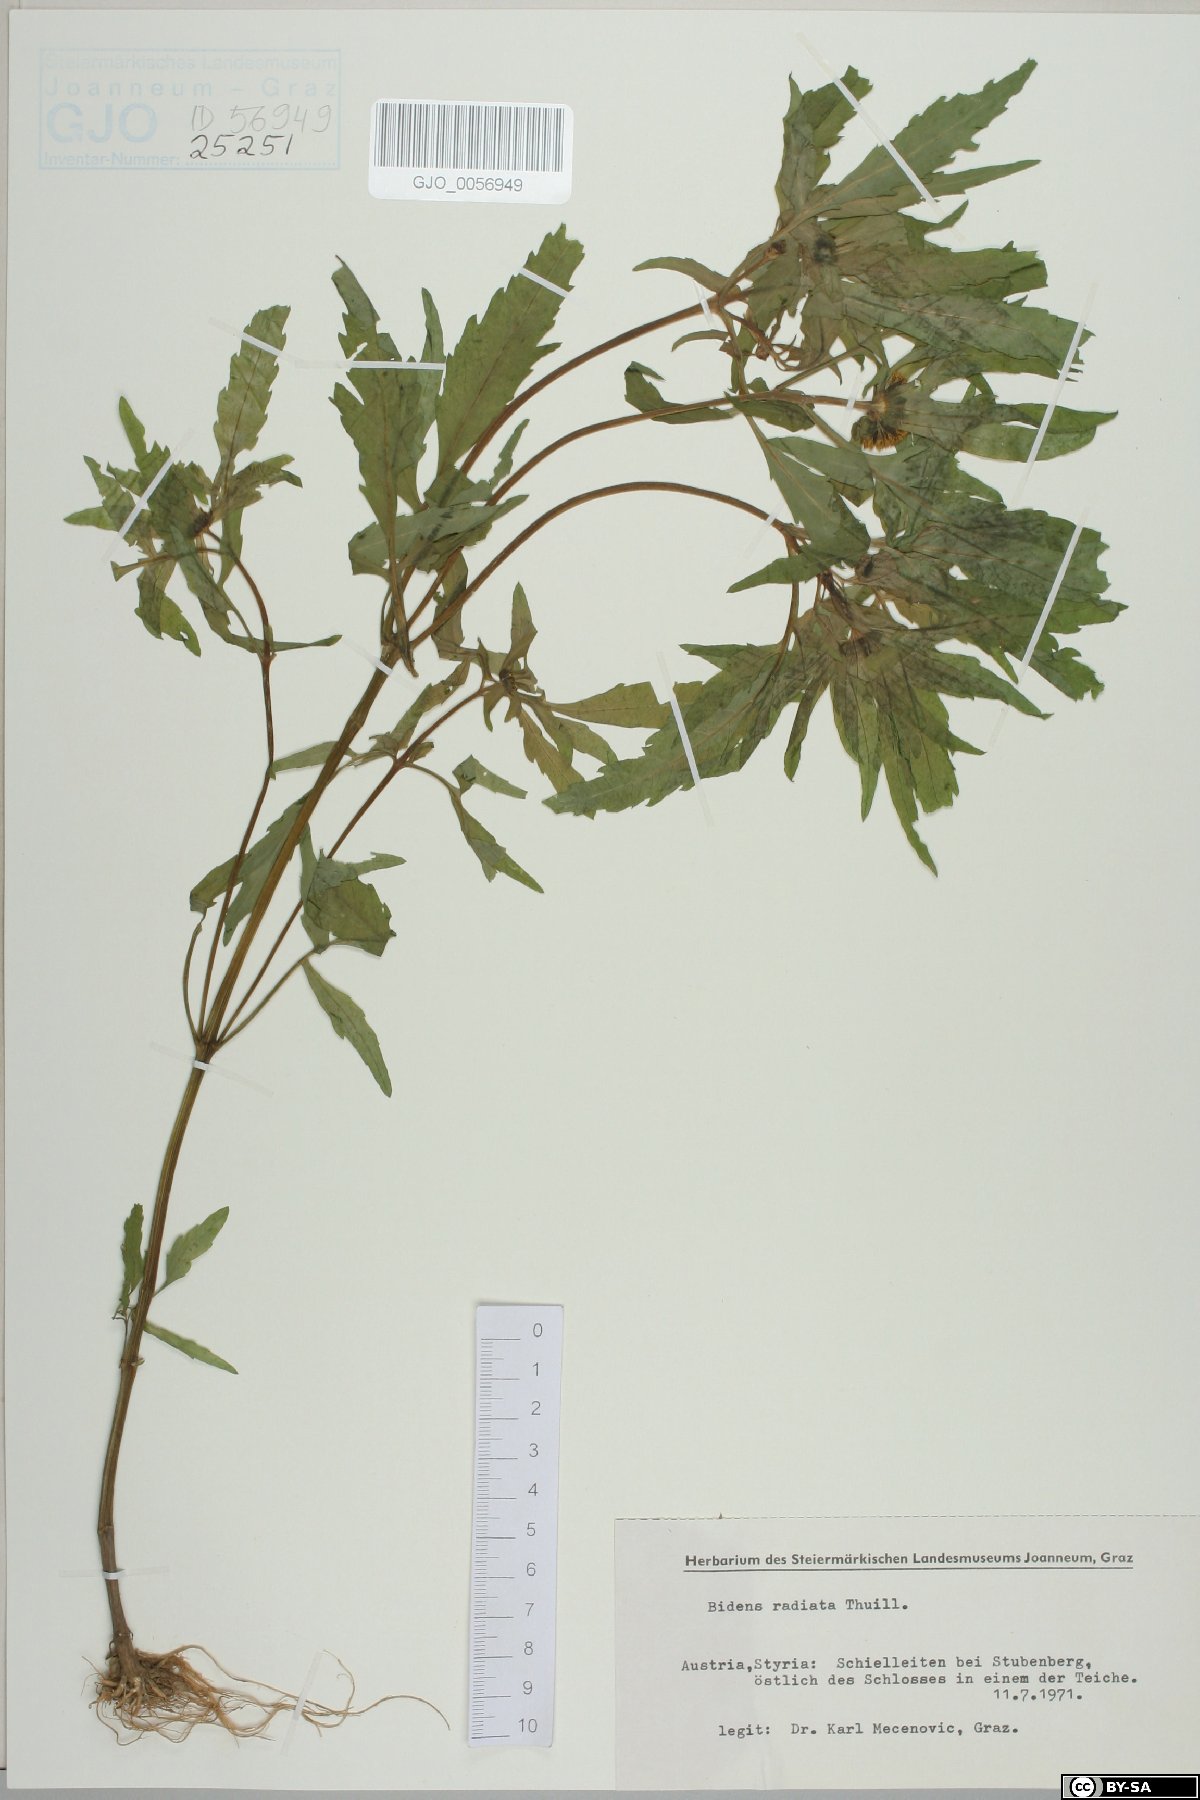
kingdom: Plantae
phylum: Tracheophyta
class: Magnoliopsida
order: Asterales
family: Asteraceae
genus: Bidens
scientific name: Bidens radiata
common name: Radiating bur-marigold
